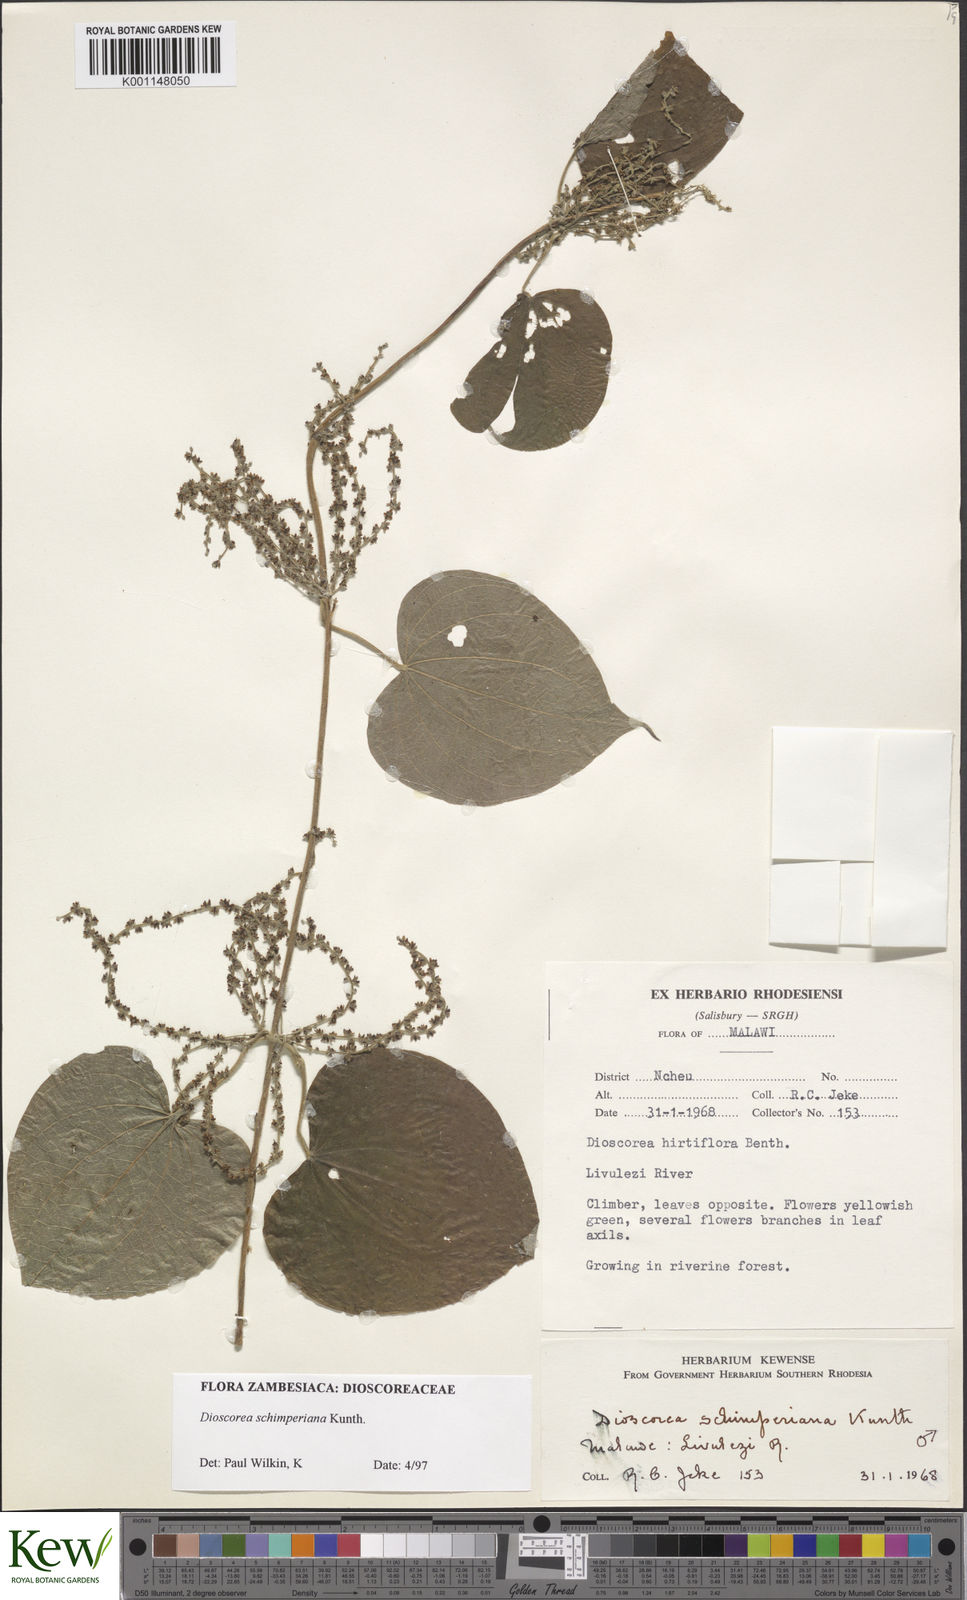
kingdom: Plantae
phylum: Tracheophyta
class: Liliopsida
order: Dioscoreales
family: Dioscoreaceae
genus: Dioscorea
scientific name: Dioscorea schimperiana
